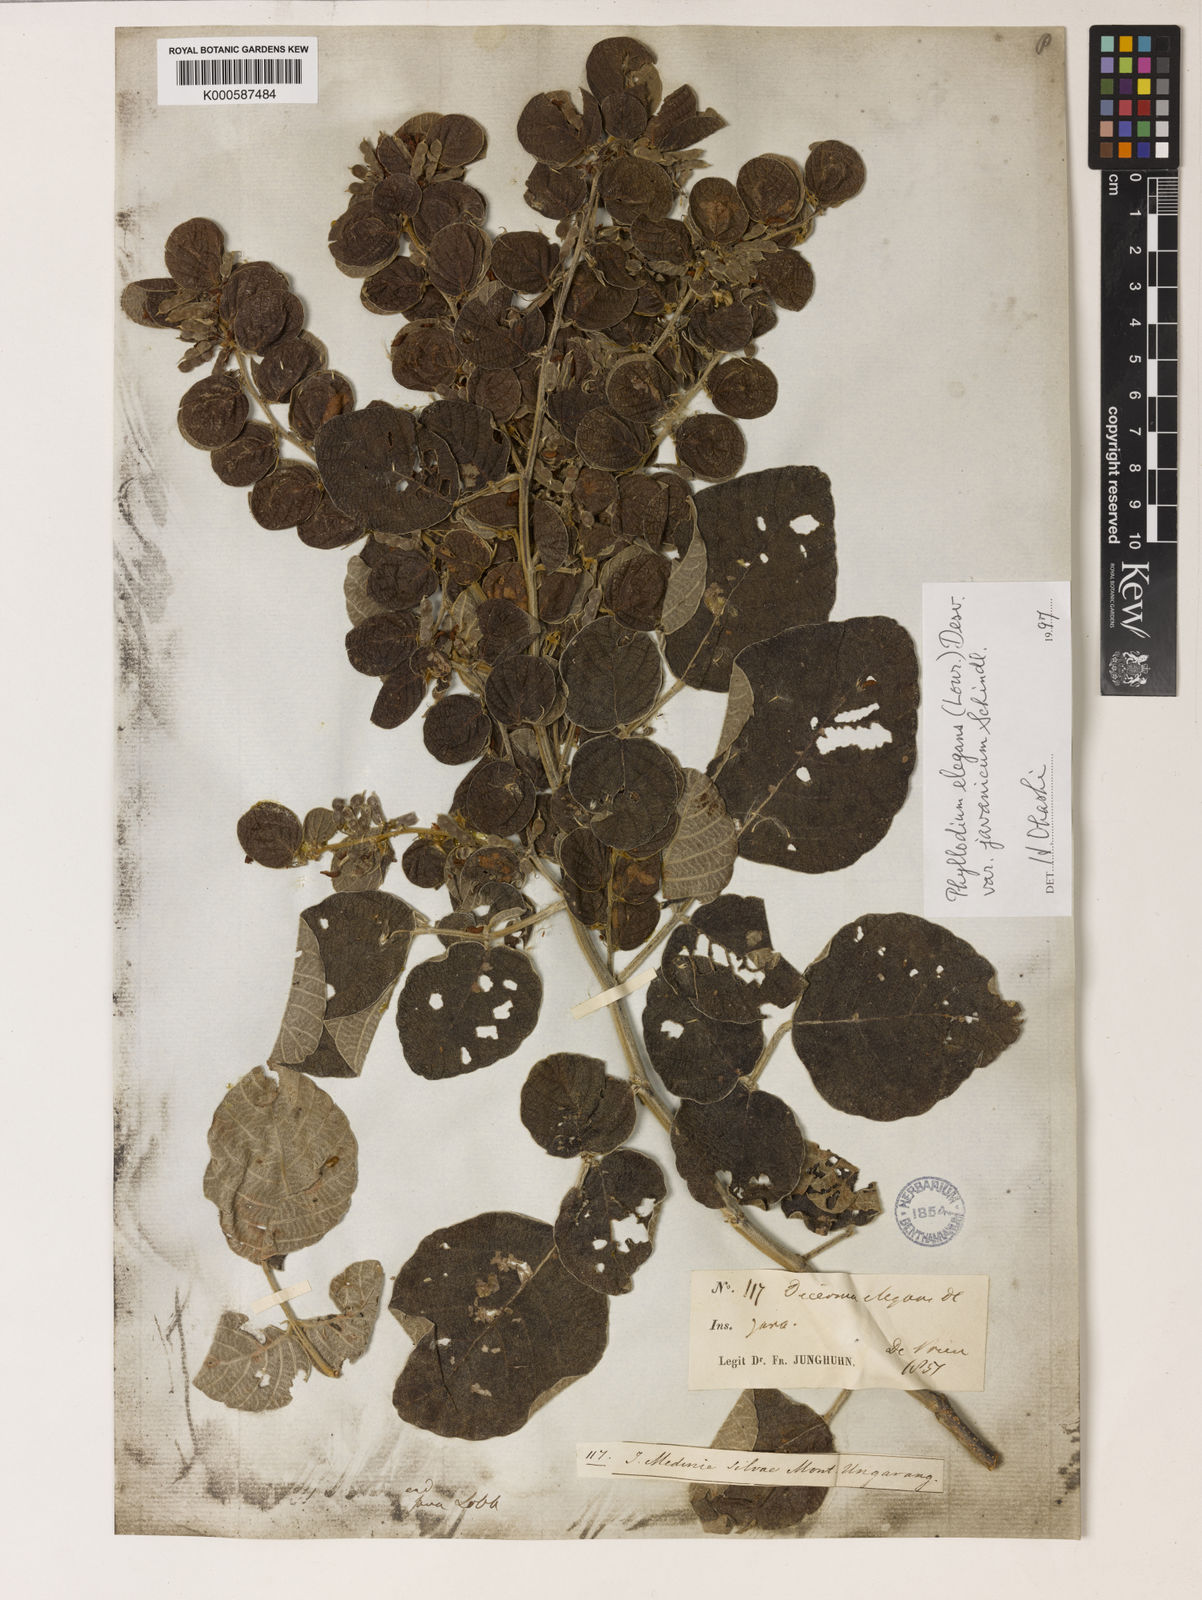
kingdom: Plantae
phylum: Tracheophyta
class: Magnoliopsida
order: Fabales
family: Fabaceae
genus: Phyllodium
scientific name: Phyllodium elegans
